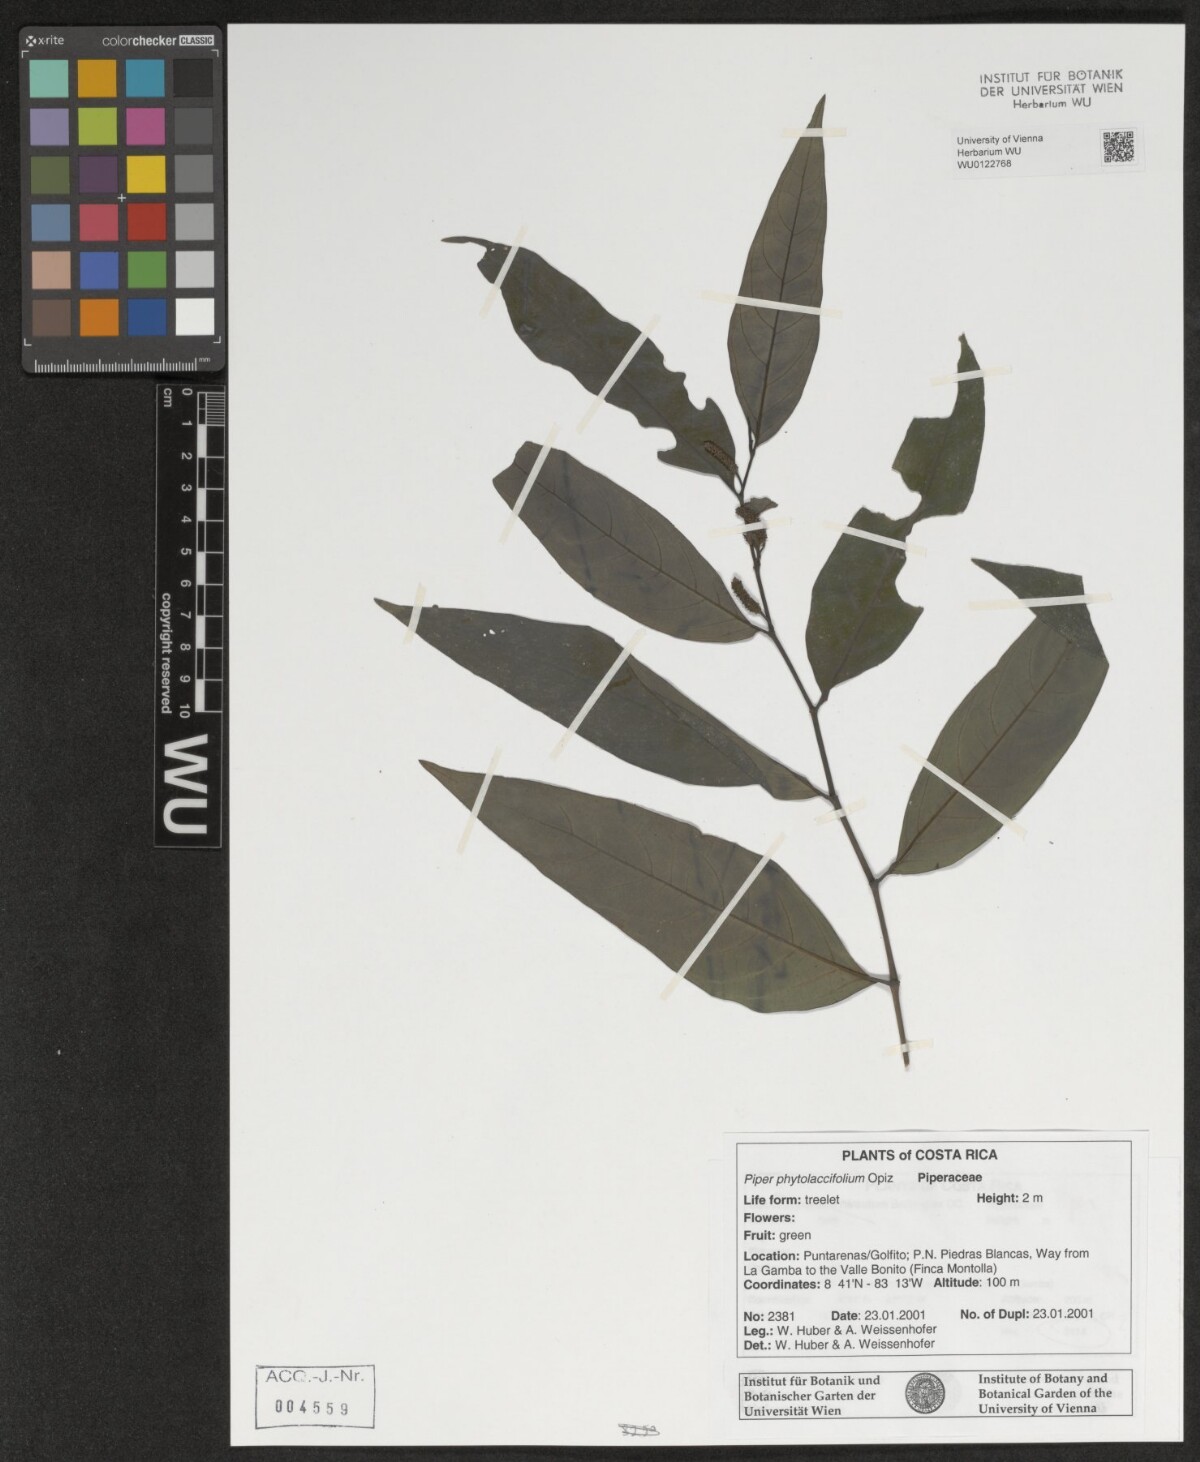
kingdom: Plantae
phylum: Tracheophyta
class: Magnoliopsida
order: Piperales
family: Piperaceae
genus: Piper
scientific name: Piper phytolaccifolium
